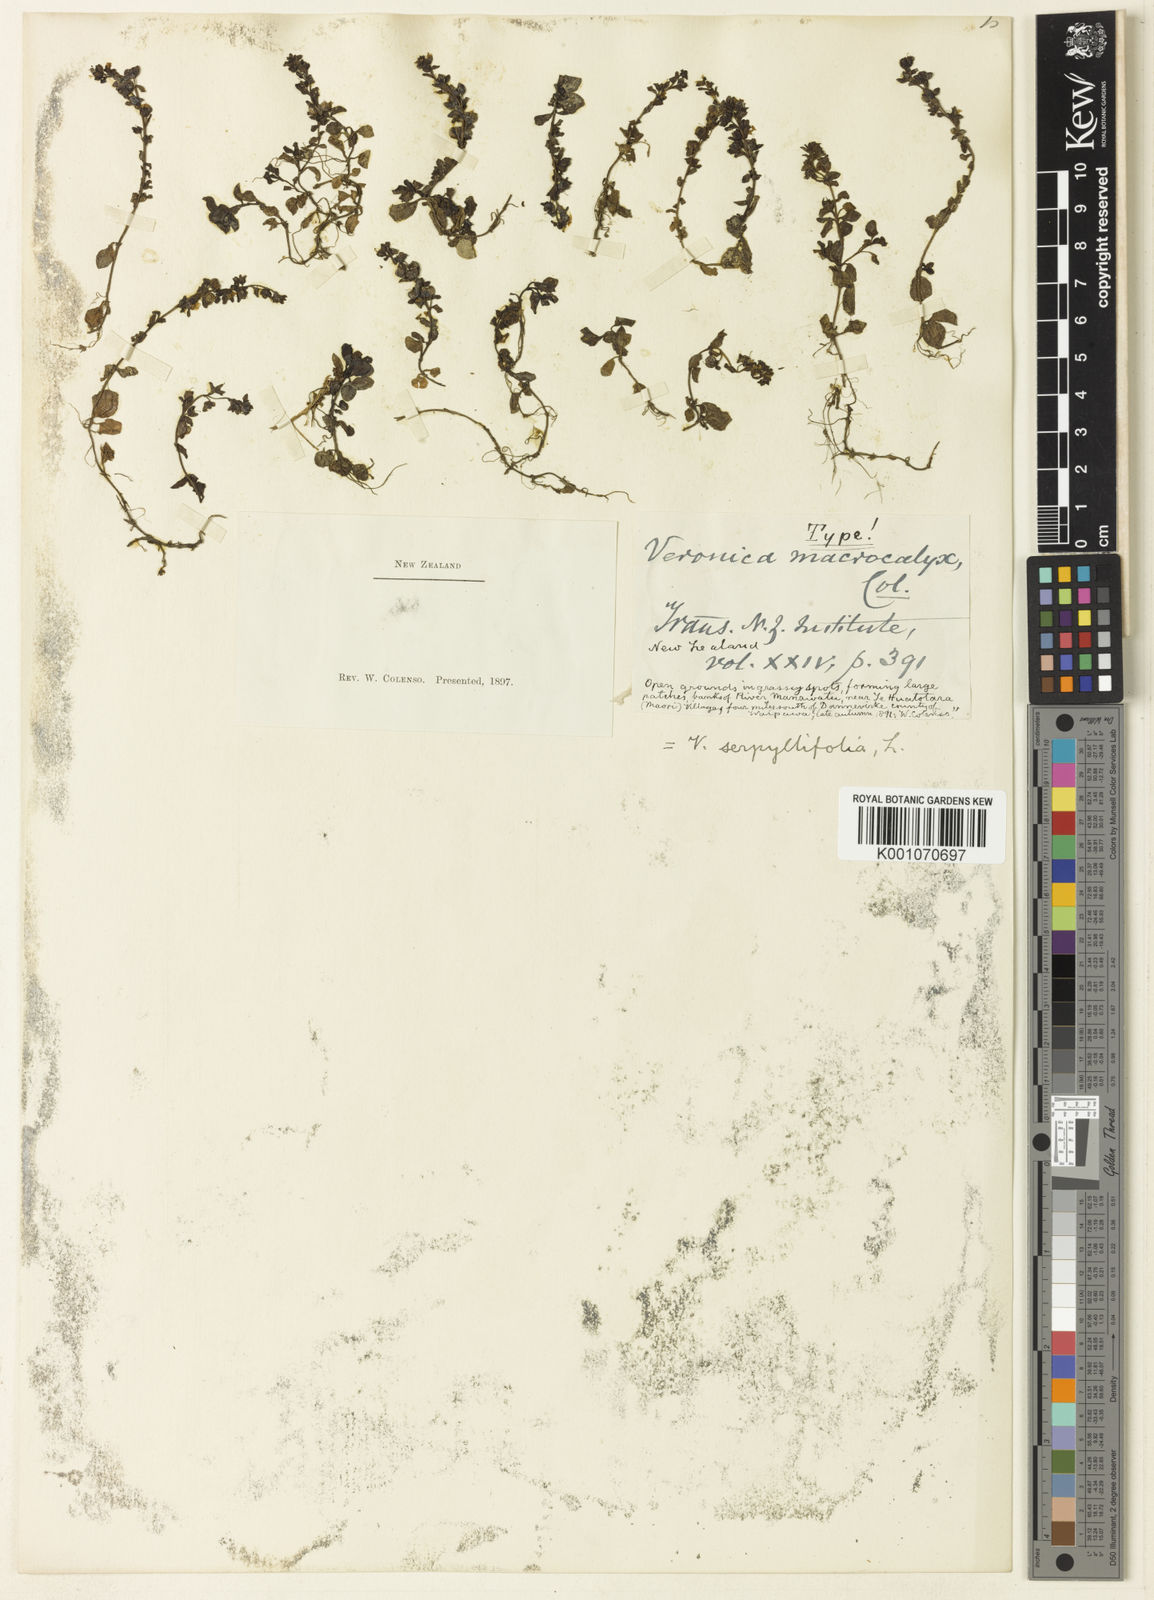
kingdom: Plantae
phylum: Tracheophyta
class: Magnoliopsida
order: Lamiales
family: Plantaginaceae
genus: Veronica
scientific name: Veronica
